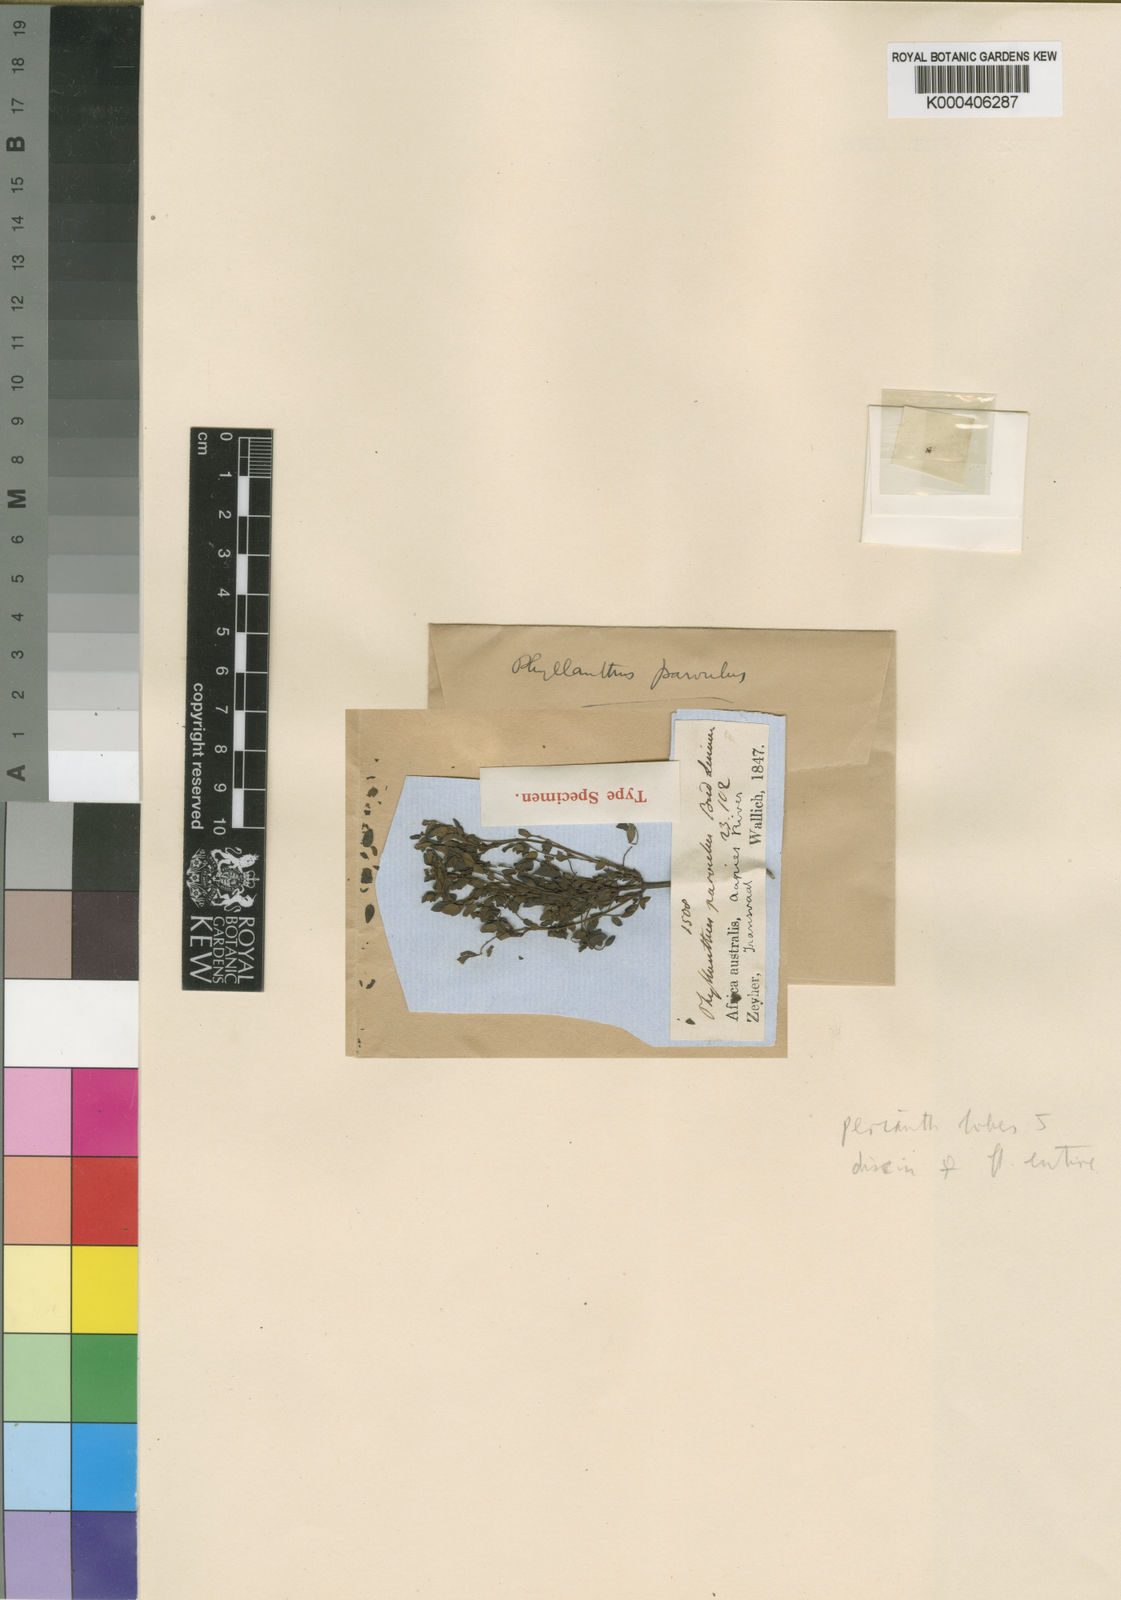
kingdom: Plantae
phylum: Tracheophyta
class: Magnoliopsida
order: Malpighiales
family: Phyllanthaceae
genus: Phyllanthus
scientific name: Phyllanthus parvulus
